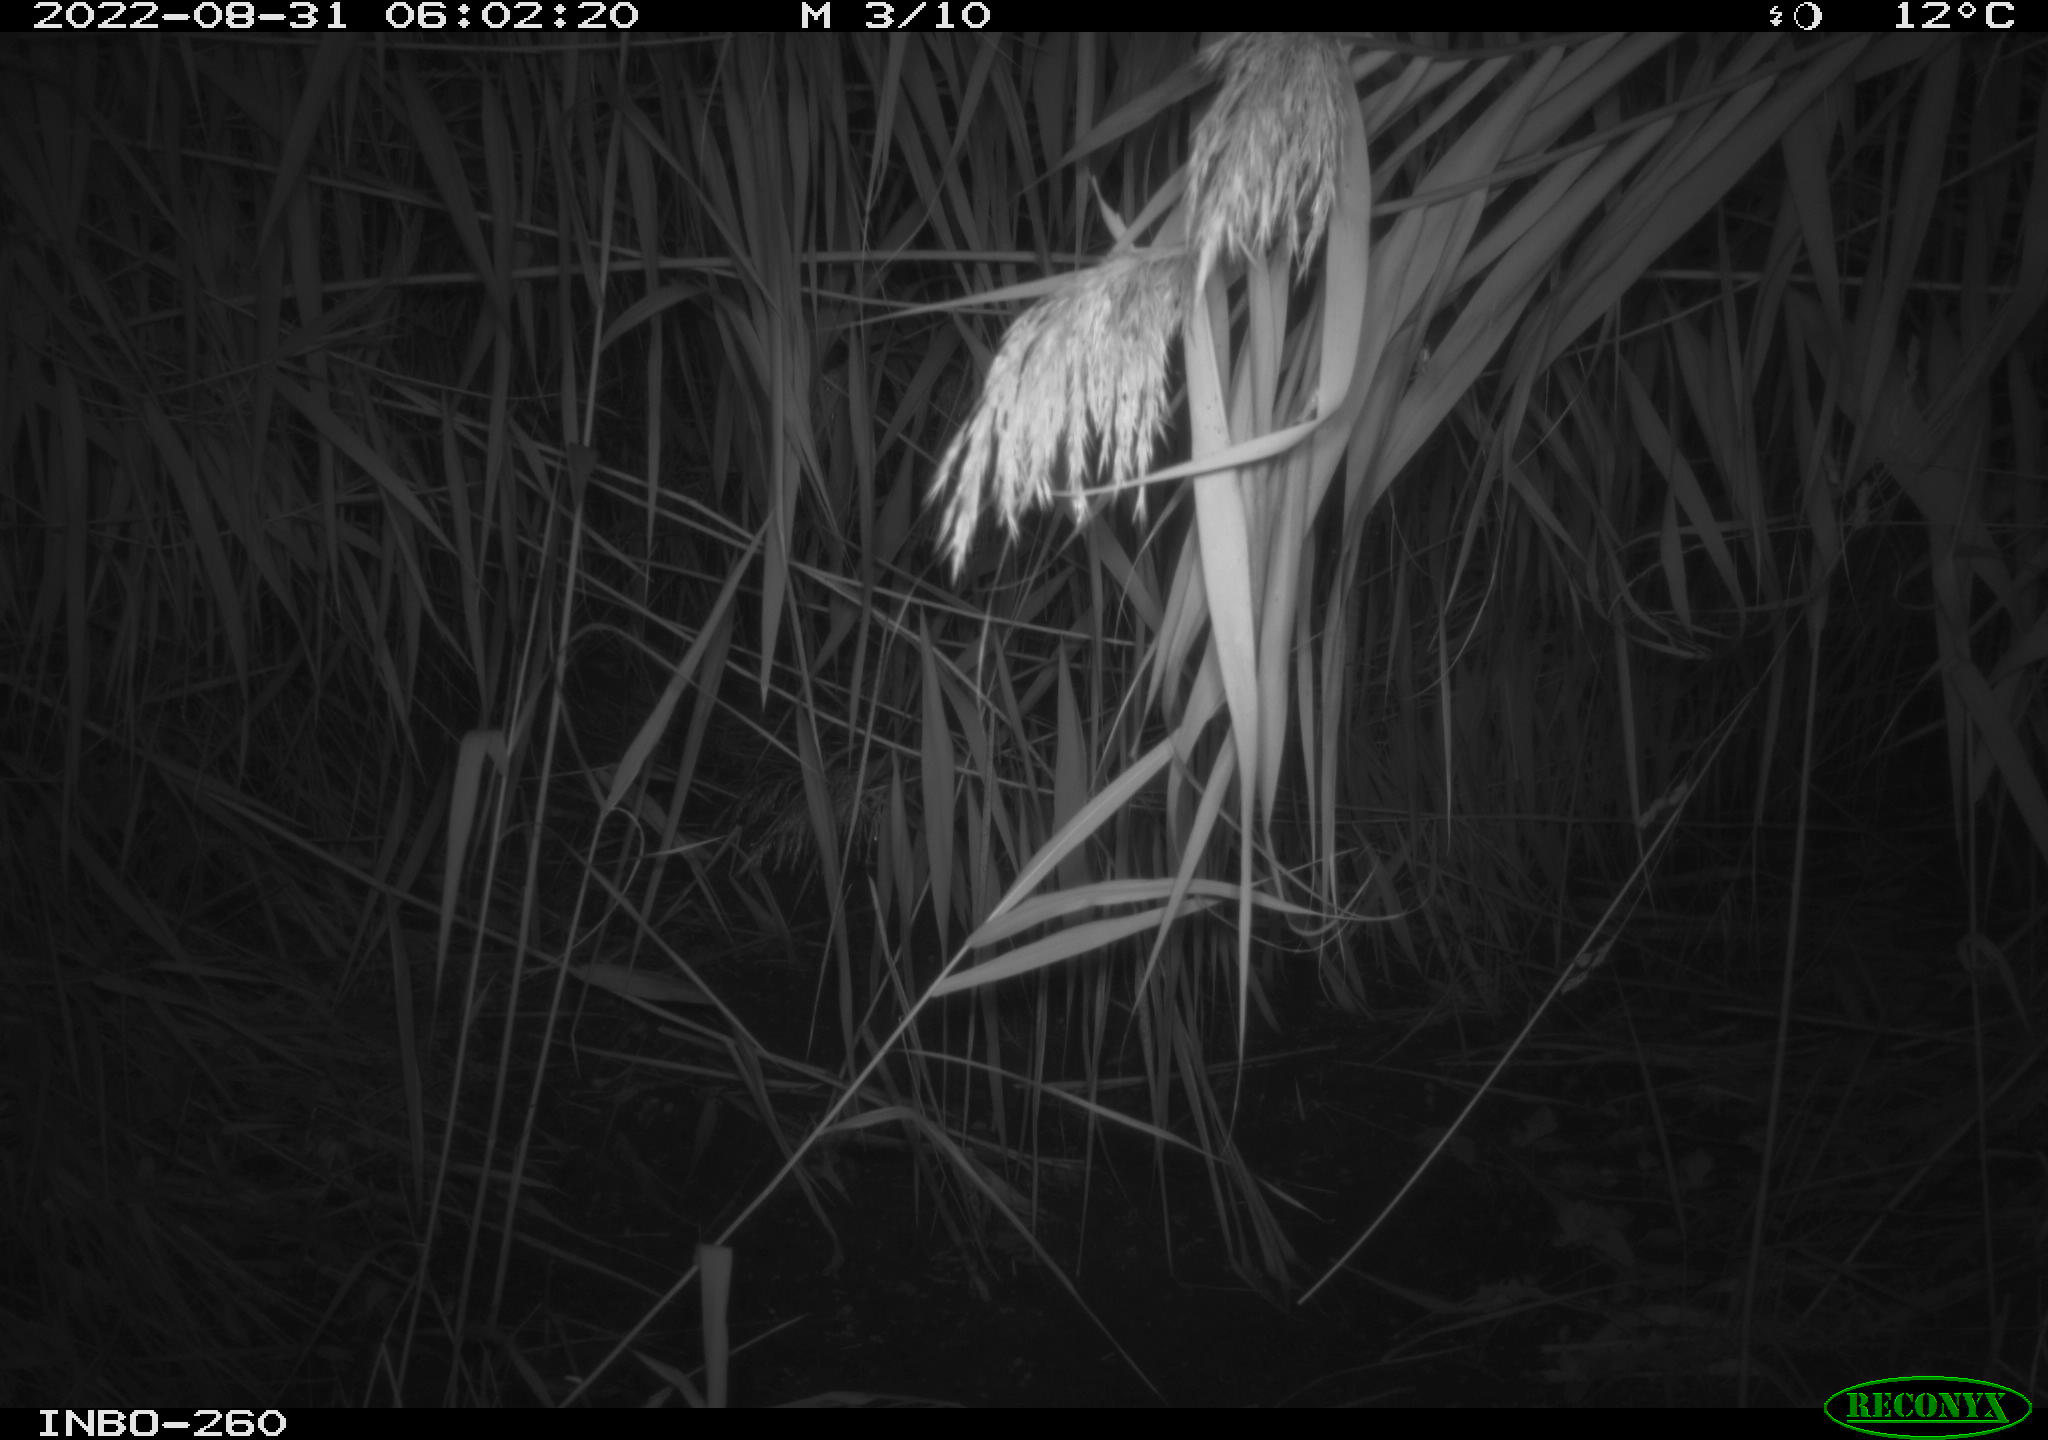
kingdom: Animalia
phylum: Chordata
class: Mammalia
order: Rodentia
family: Muridae
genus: Rattus
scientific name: Rattus norvegicus
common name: Brown rat
